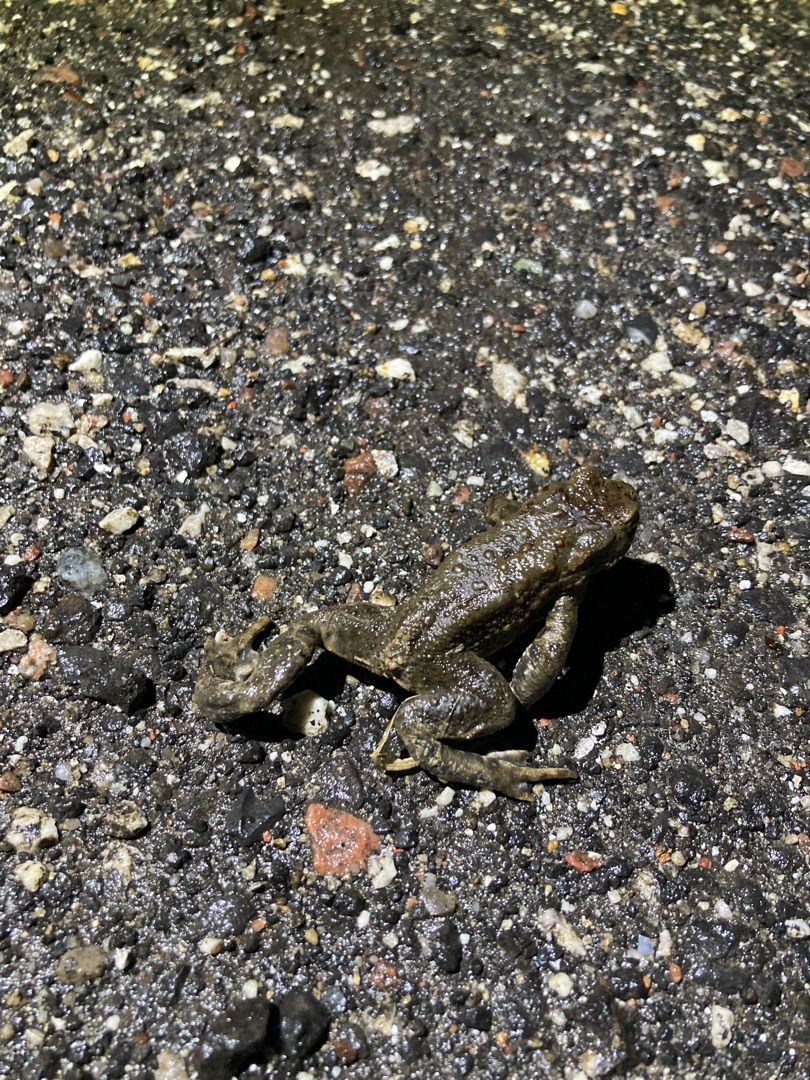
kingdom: Animalia
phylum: Chordata
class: Amphibia
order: Anura
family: Bufonidae
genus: Bufo
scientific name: Bufo bufo
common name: Skrubtudse
